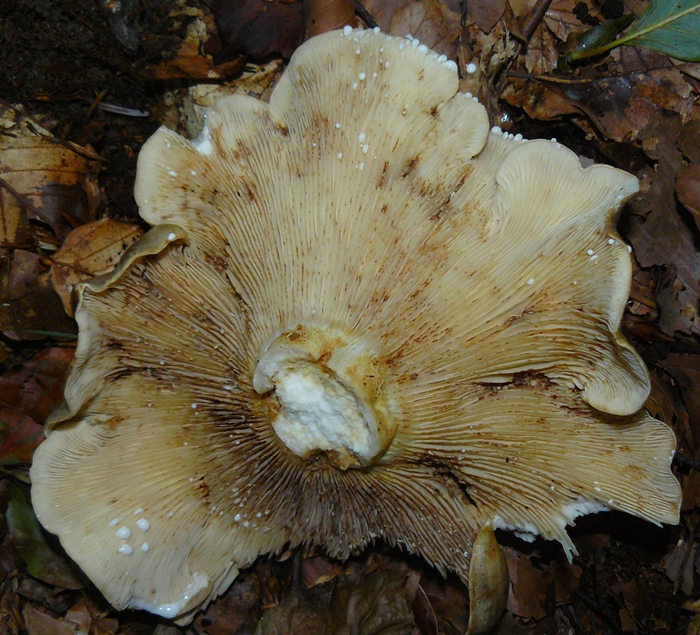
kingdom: Fungi
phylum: Basidiomycota
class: Agaricomycetes
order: Russulales
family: Russulaceae
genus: Lactarius
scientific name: Lactarius fluens
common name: lysrandet mælkehat
